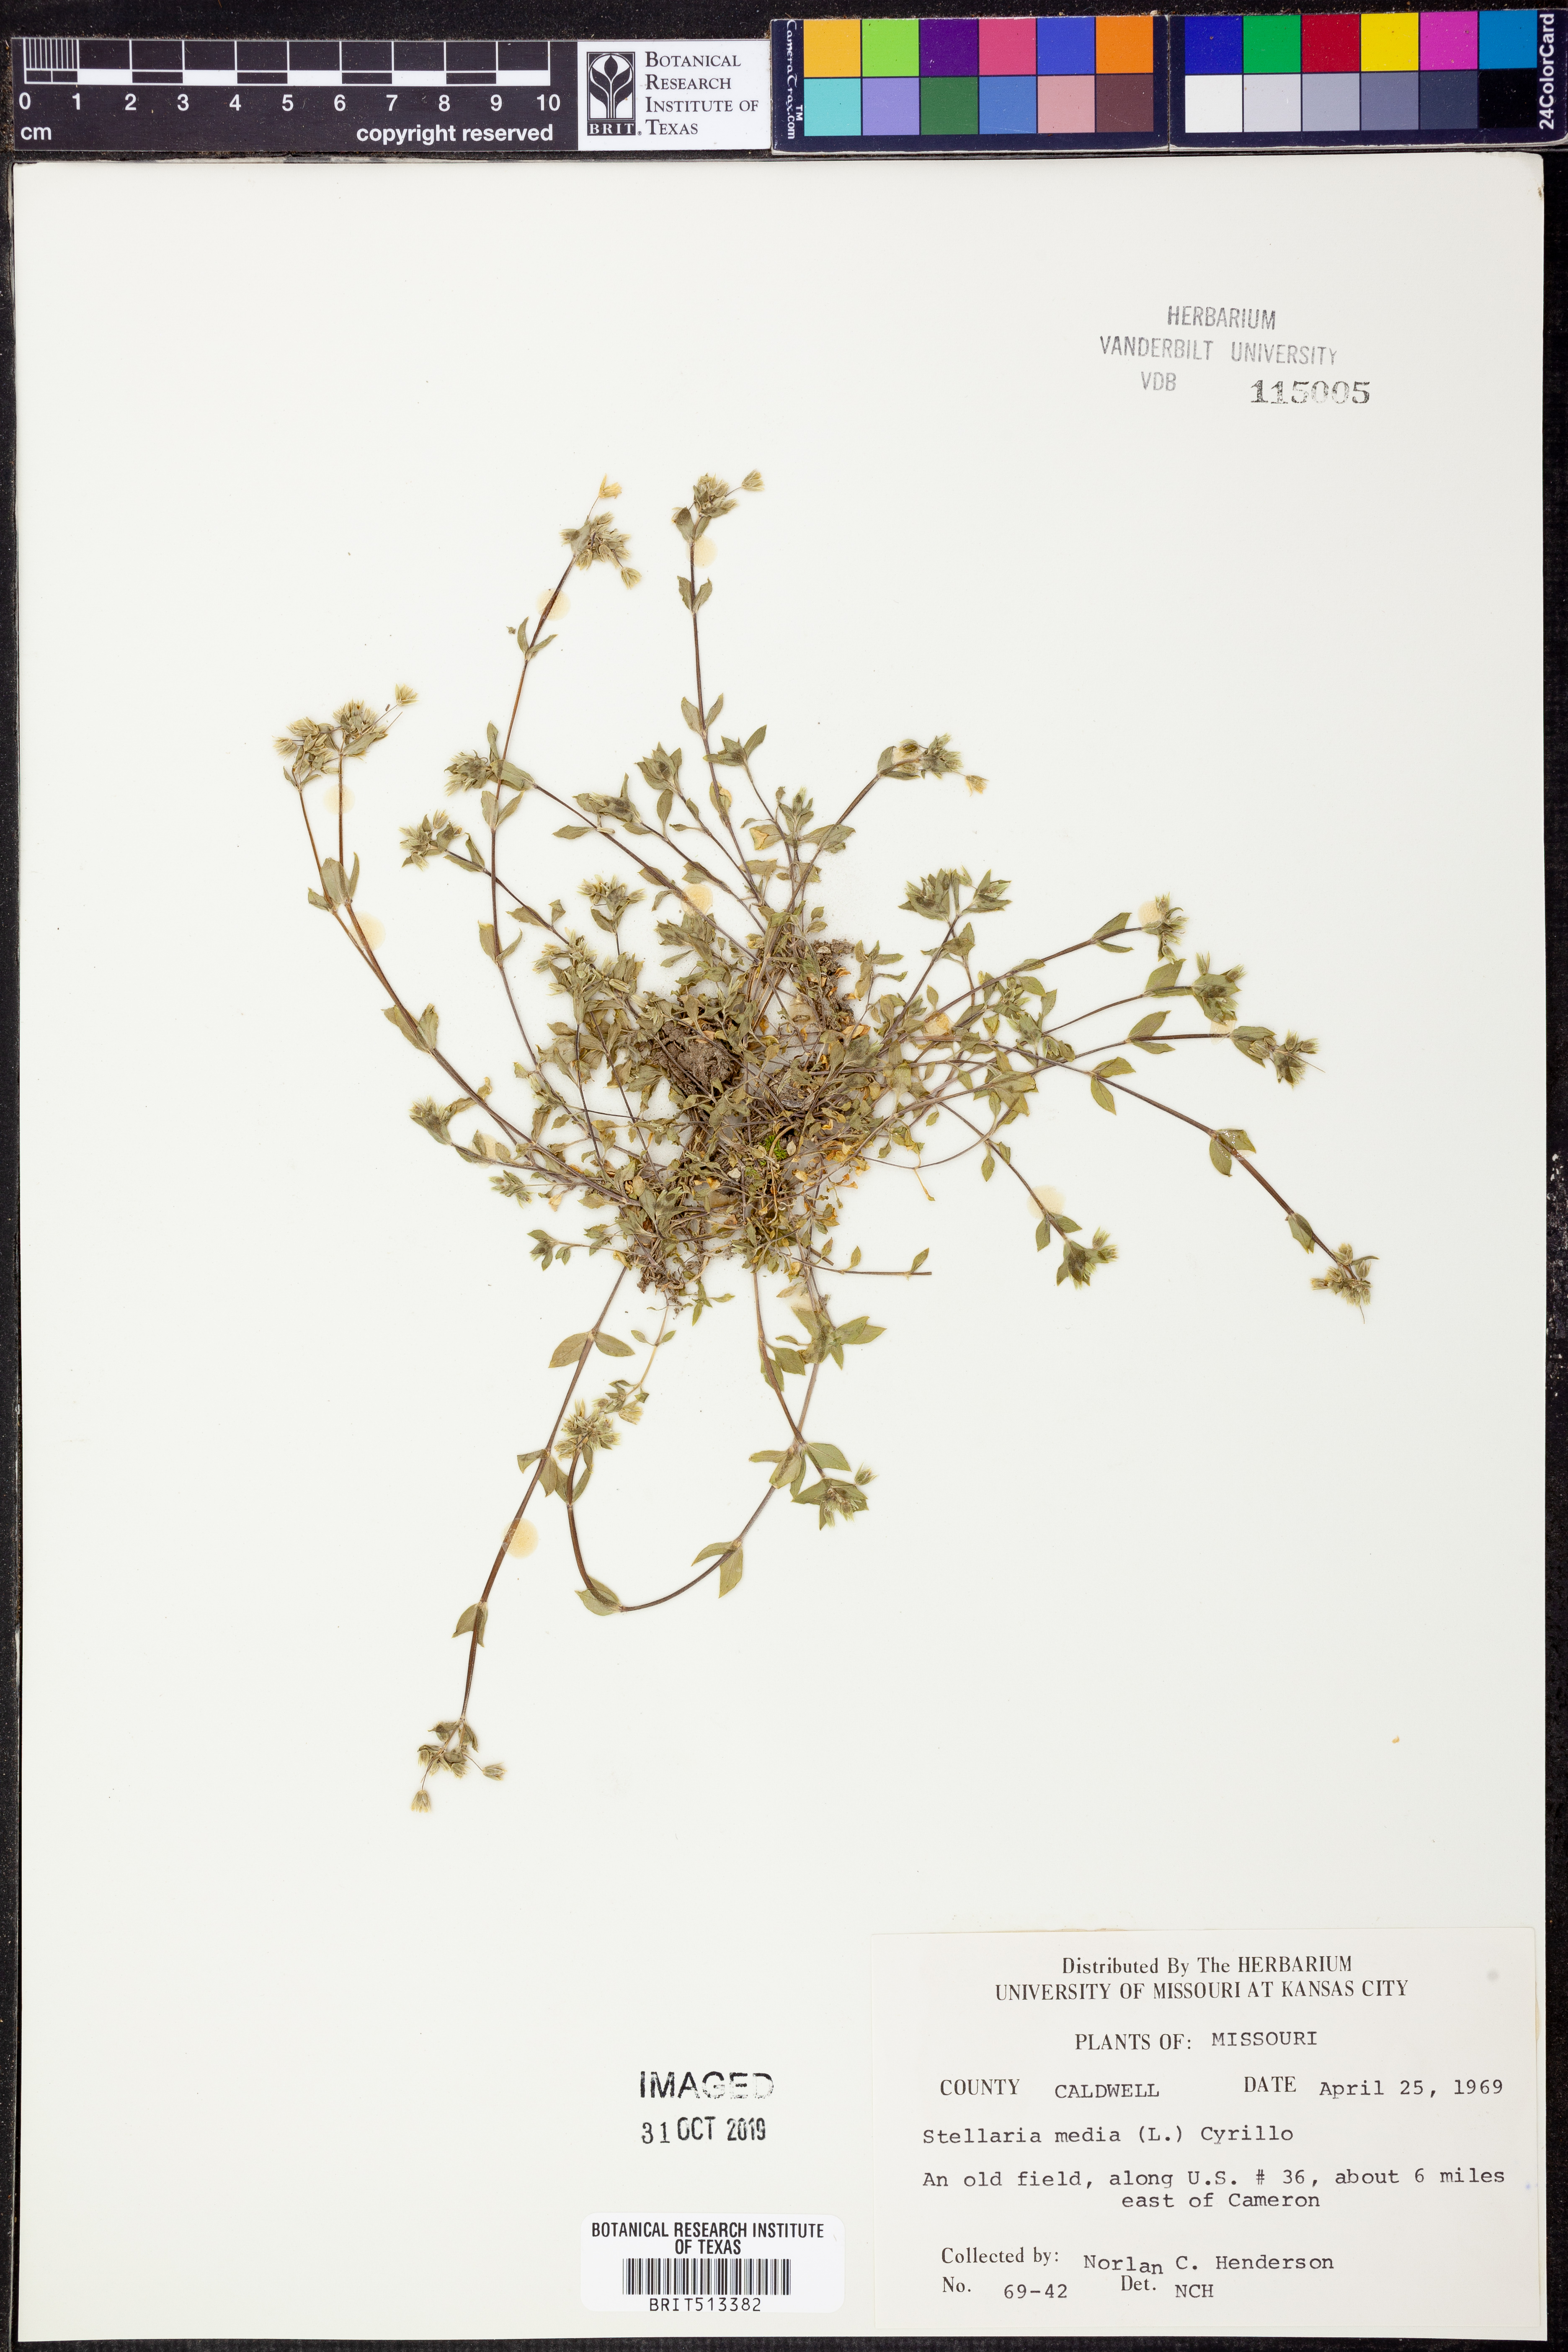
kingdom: Plantae
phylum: Tracheophyta
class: Magnoliopsida
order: Caryophyllales
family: Caryophyllaceae
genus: Stellaria
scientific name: Stellaria media
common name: Common chickweed
